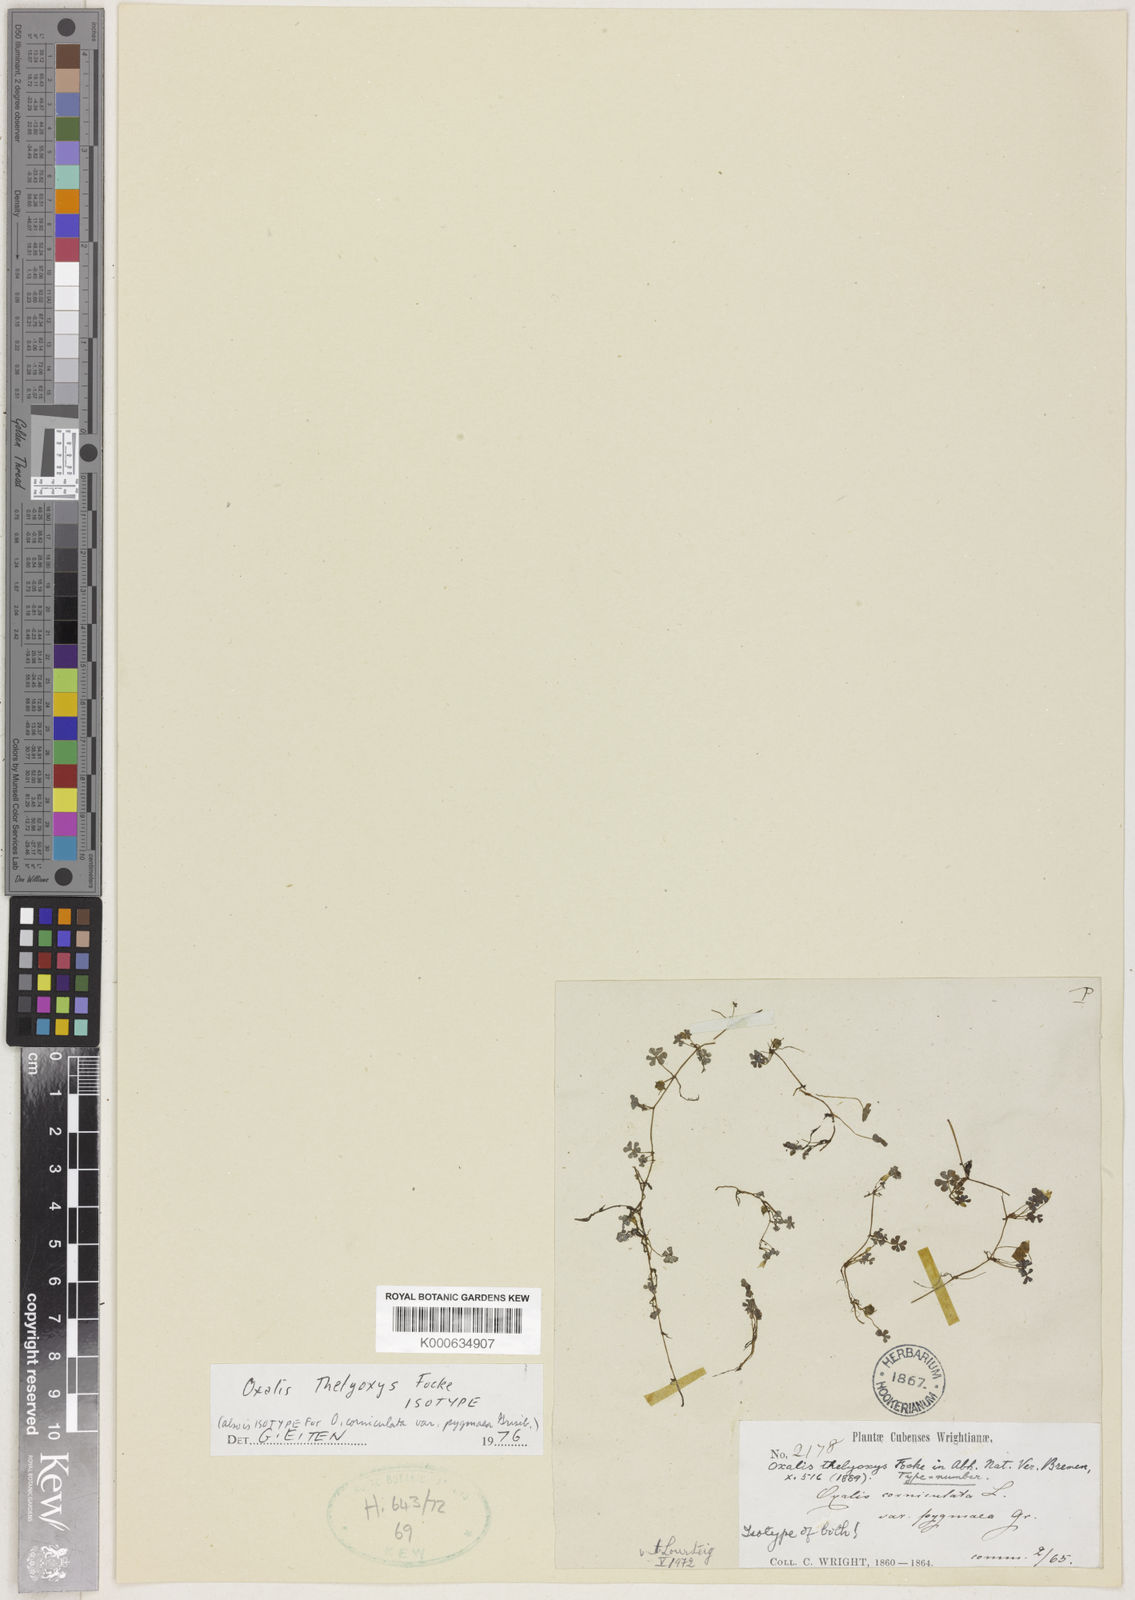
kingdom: Plantae
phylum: Tracheophyta
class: Magnoliopsida
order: Oxalidales
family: Oxalidaceae
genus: Oxalis
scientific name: Oxalis thelyoxys
